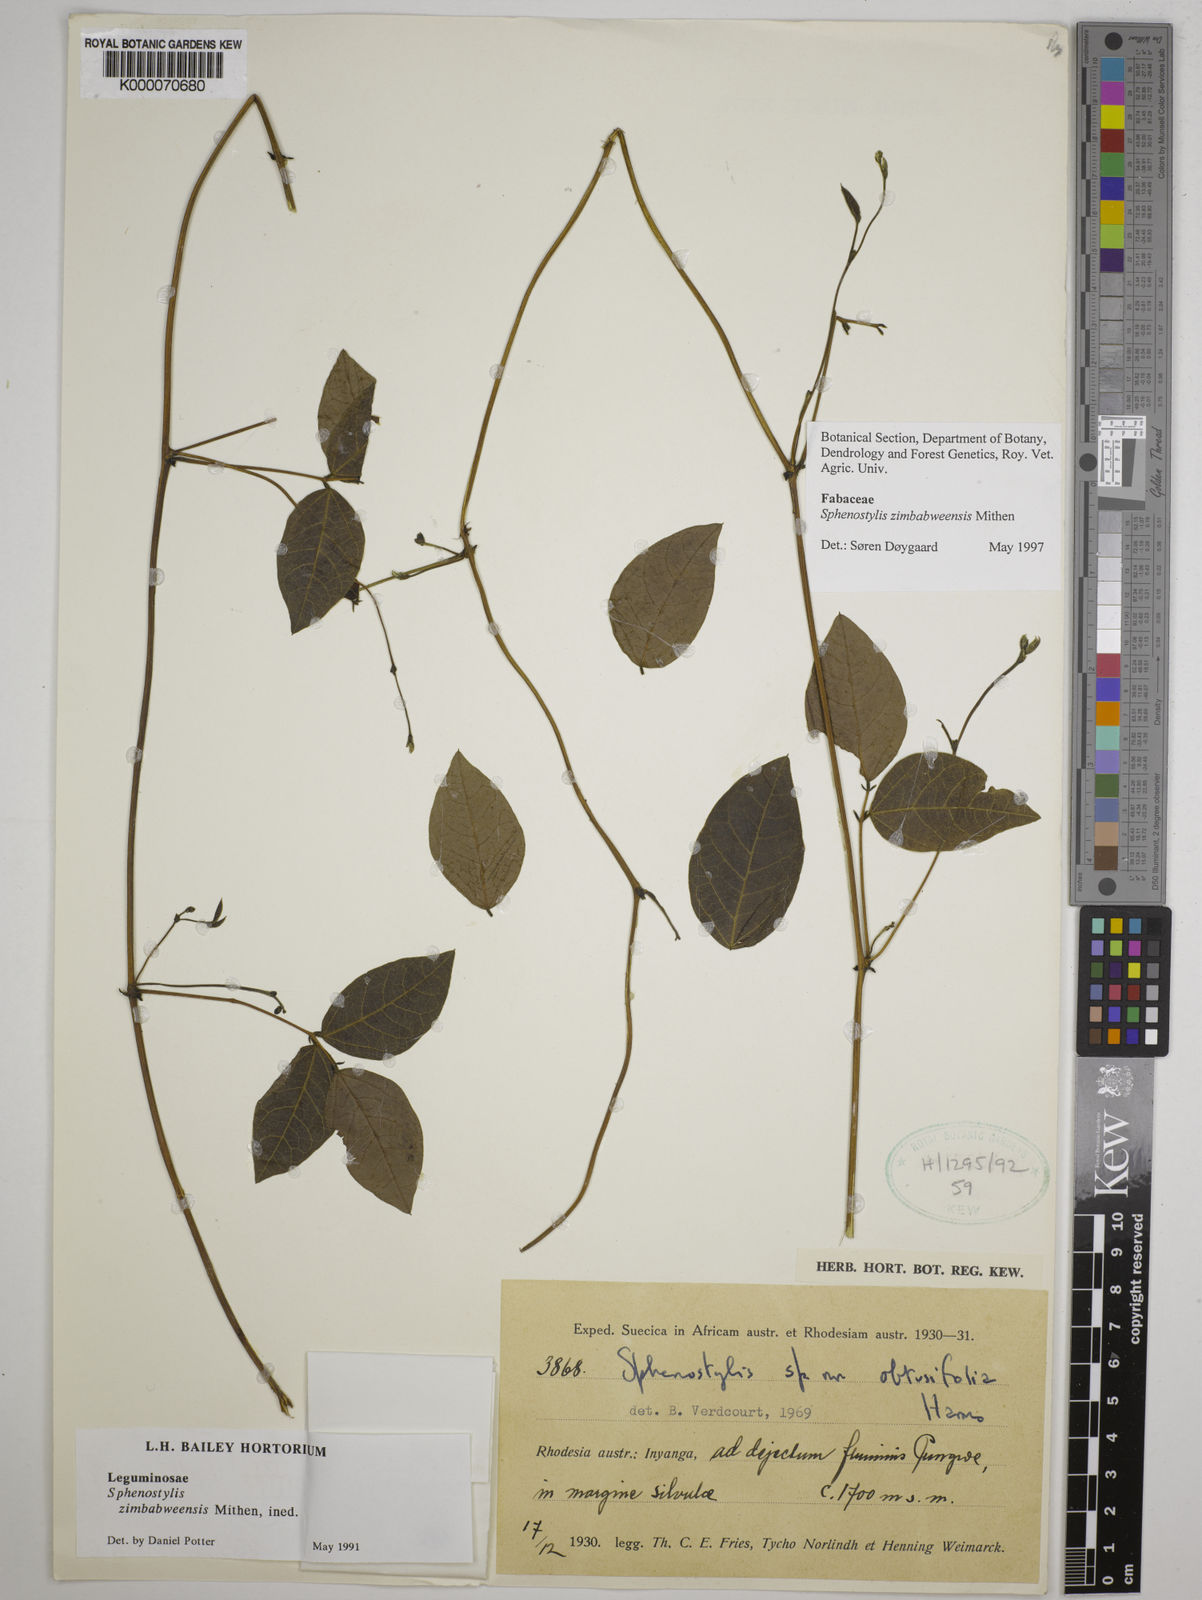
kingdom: Plantae
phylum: Tracheophyta
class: Magnoliopsida
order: Fabales
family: Fabaceae
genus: Sphenostylis
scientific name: Sphenostylis zimbabweensis
